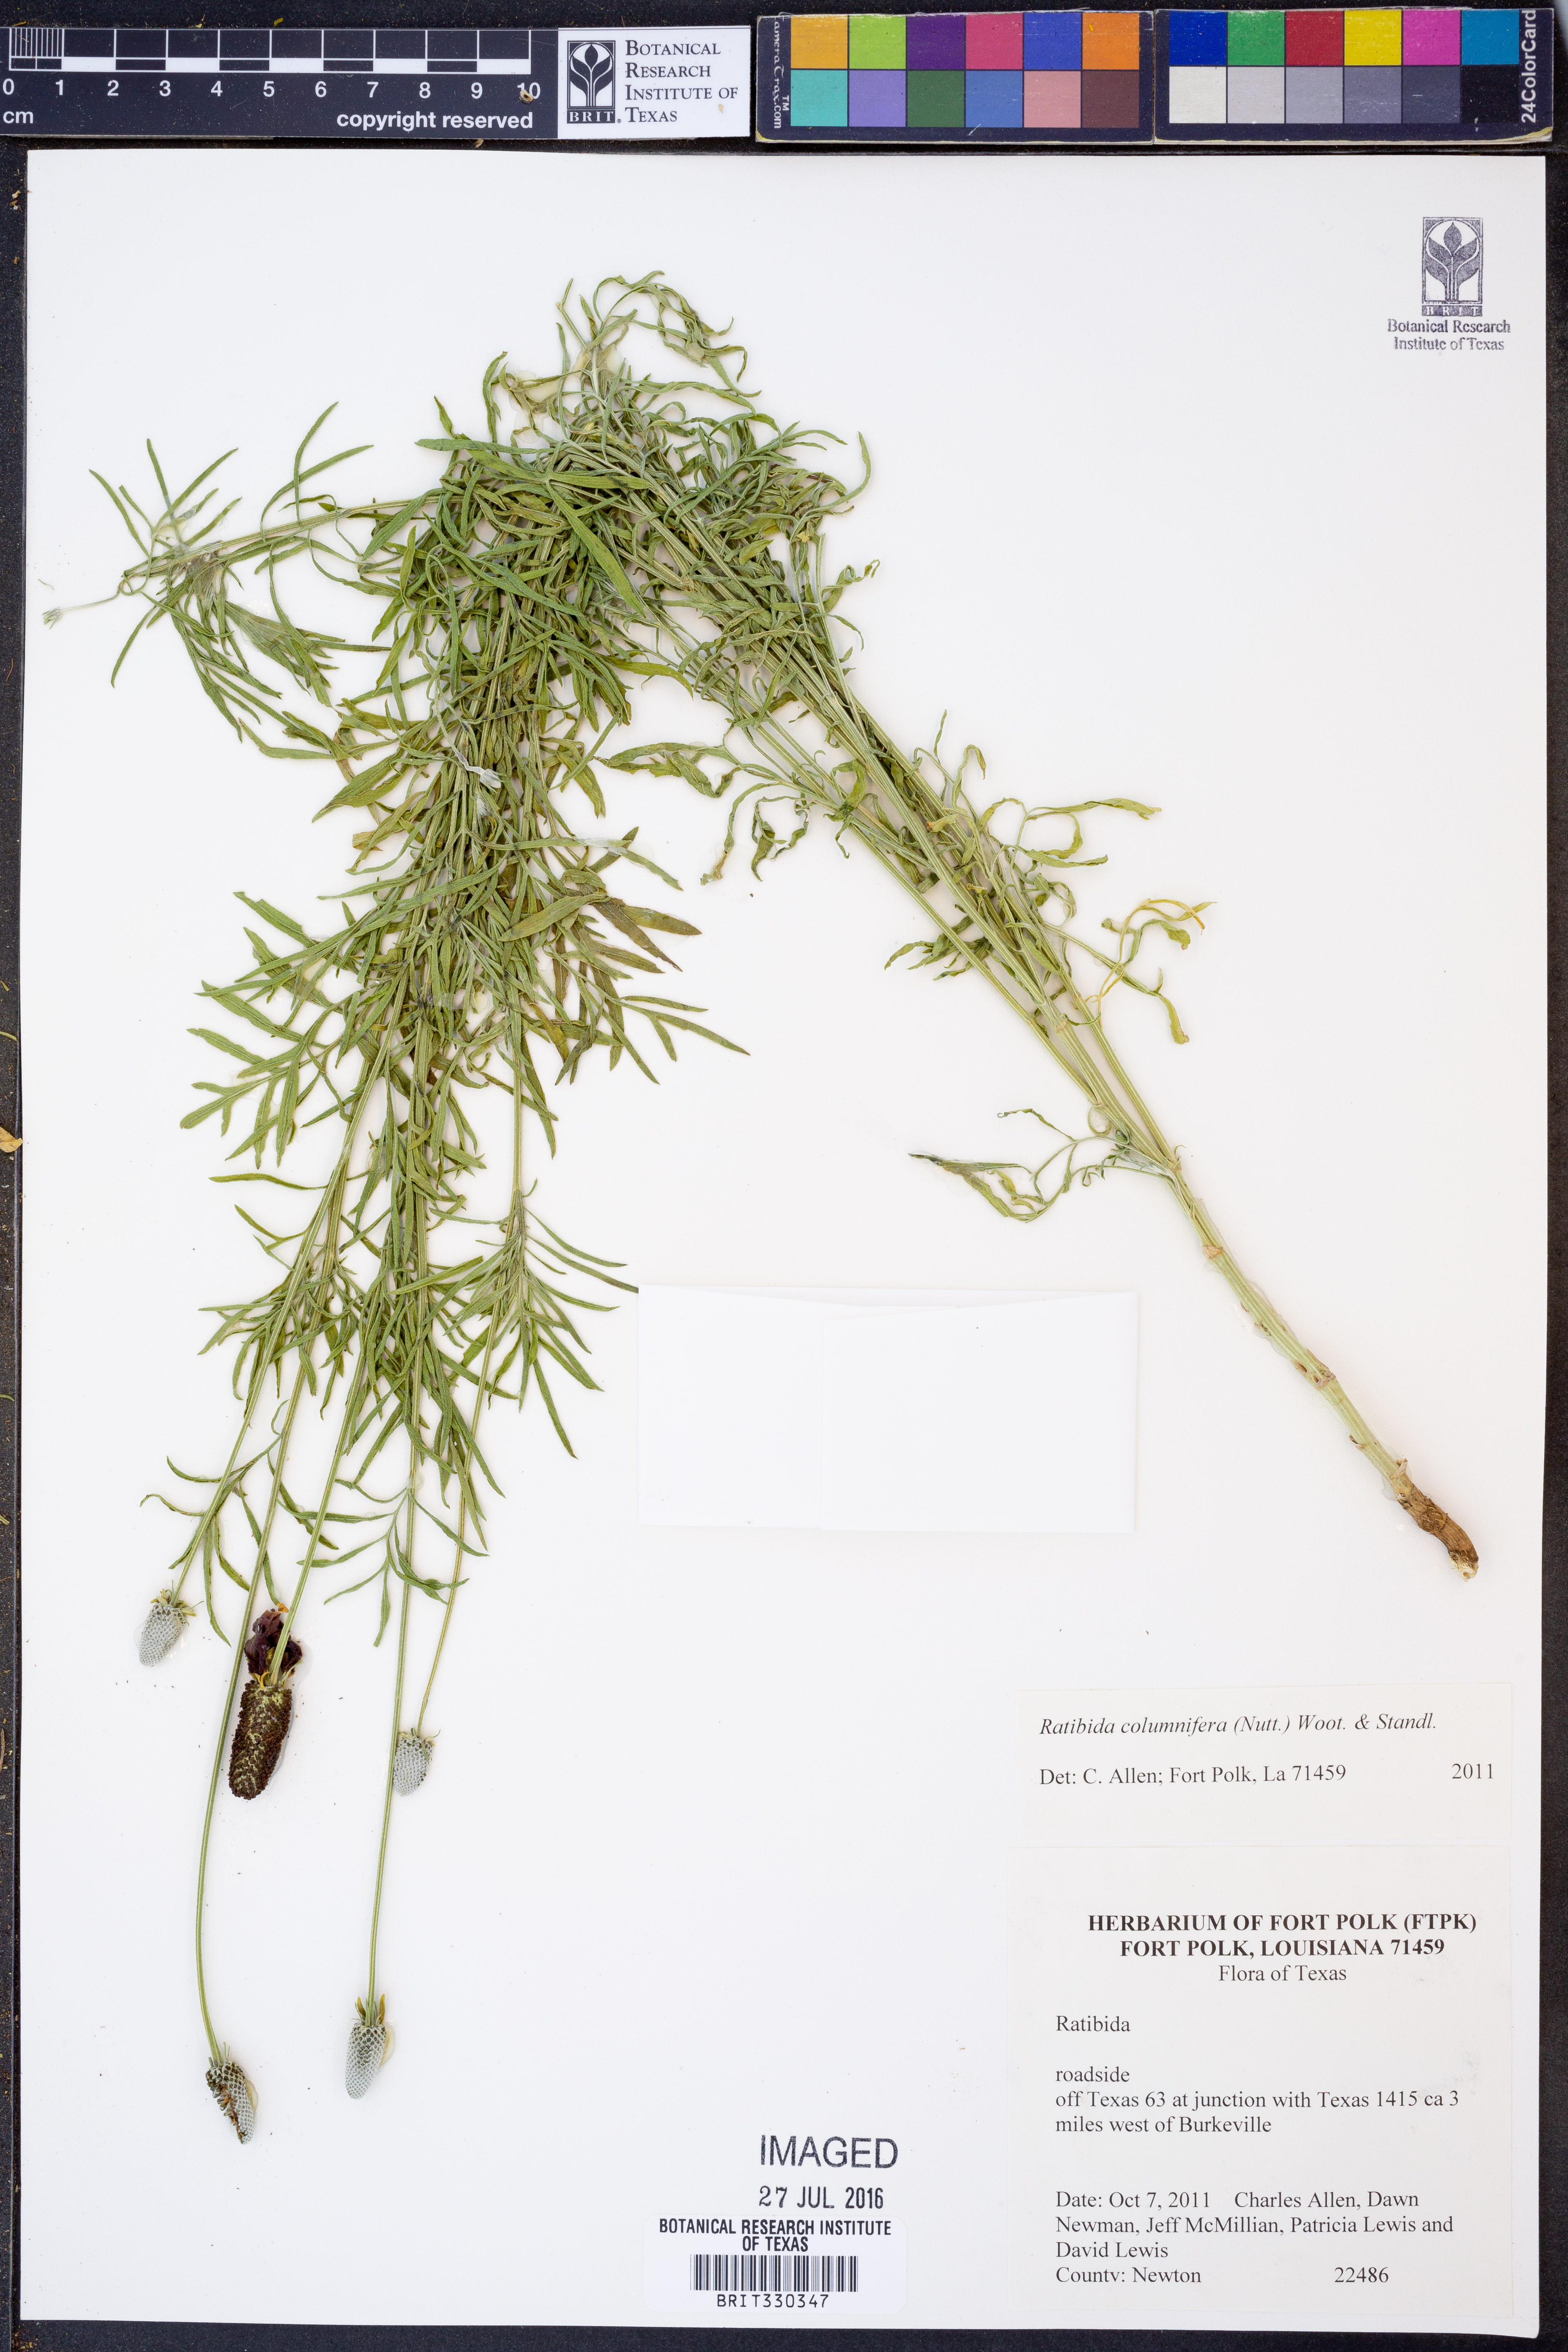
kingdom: Plantae
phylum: Tracheophyta
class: Magnoliopsida
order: Asterales
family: Asteraceae
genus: Ratibida
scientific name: Ratibida columnifera
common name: Prairie coneflower
